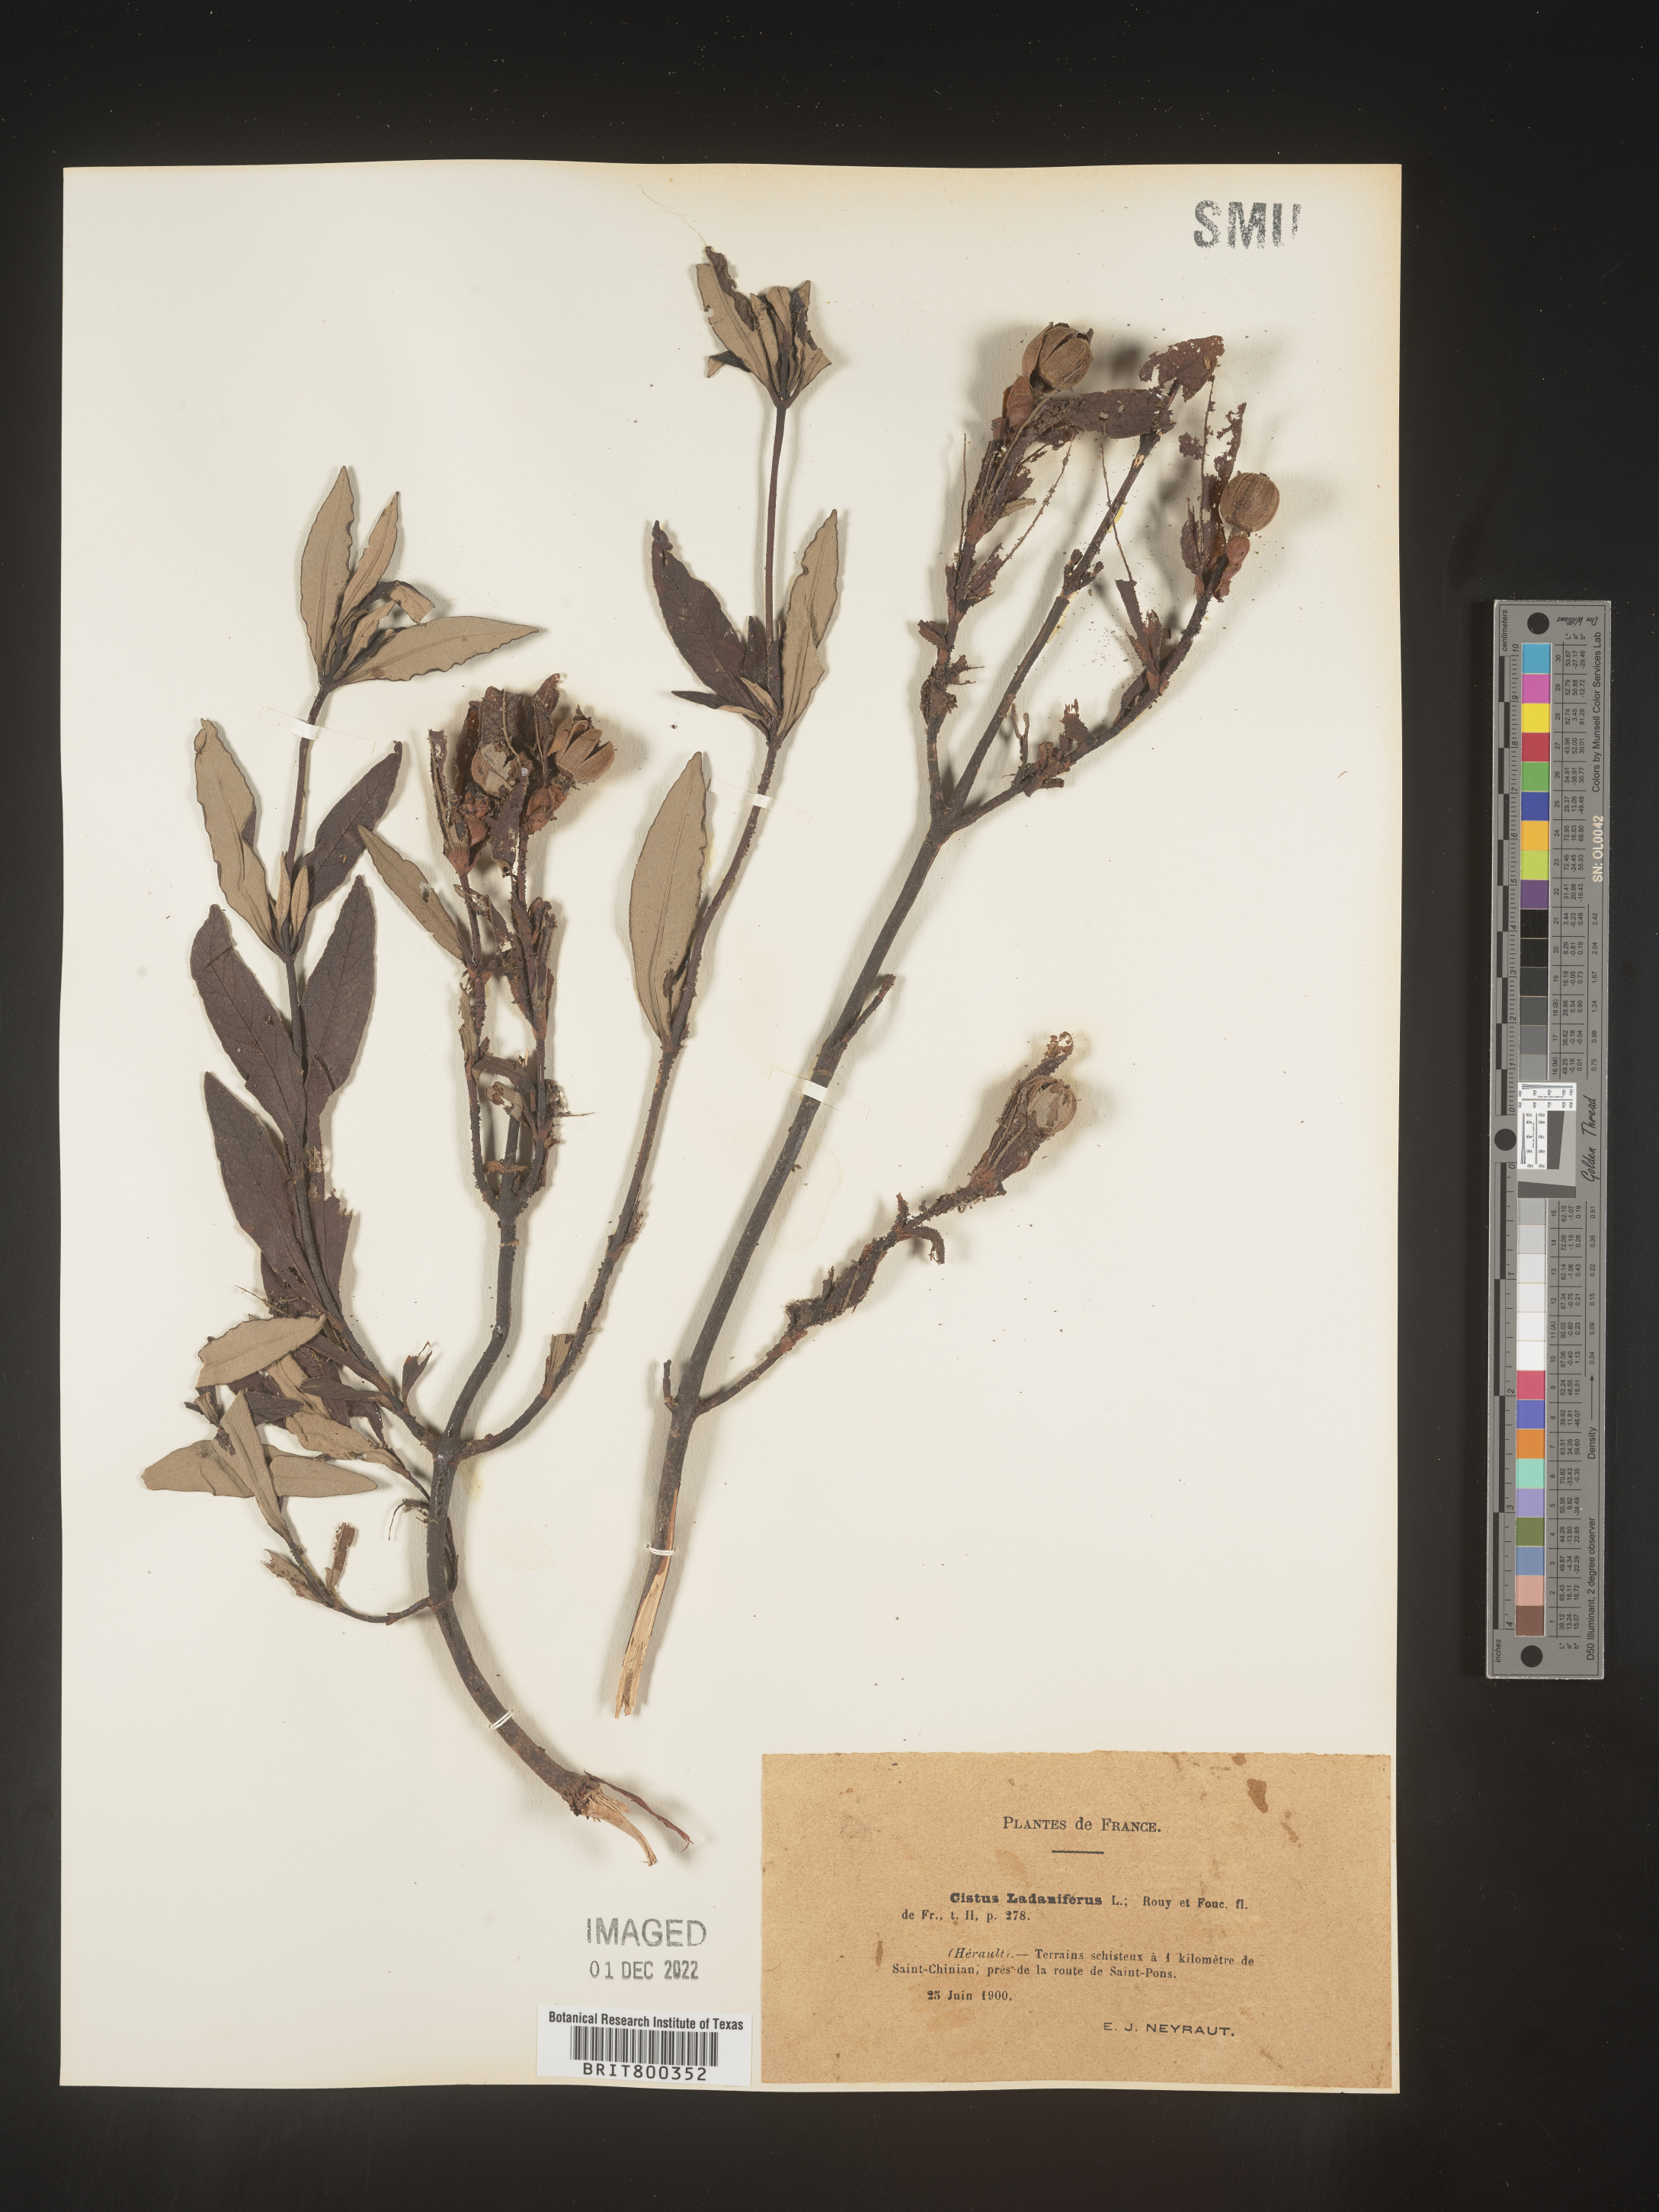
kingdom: Plantae
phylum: Tracheophyta
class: Magnoliopsida
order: Malvales
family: Cistaceae
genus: Cistus
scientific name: Cistus
